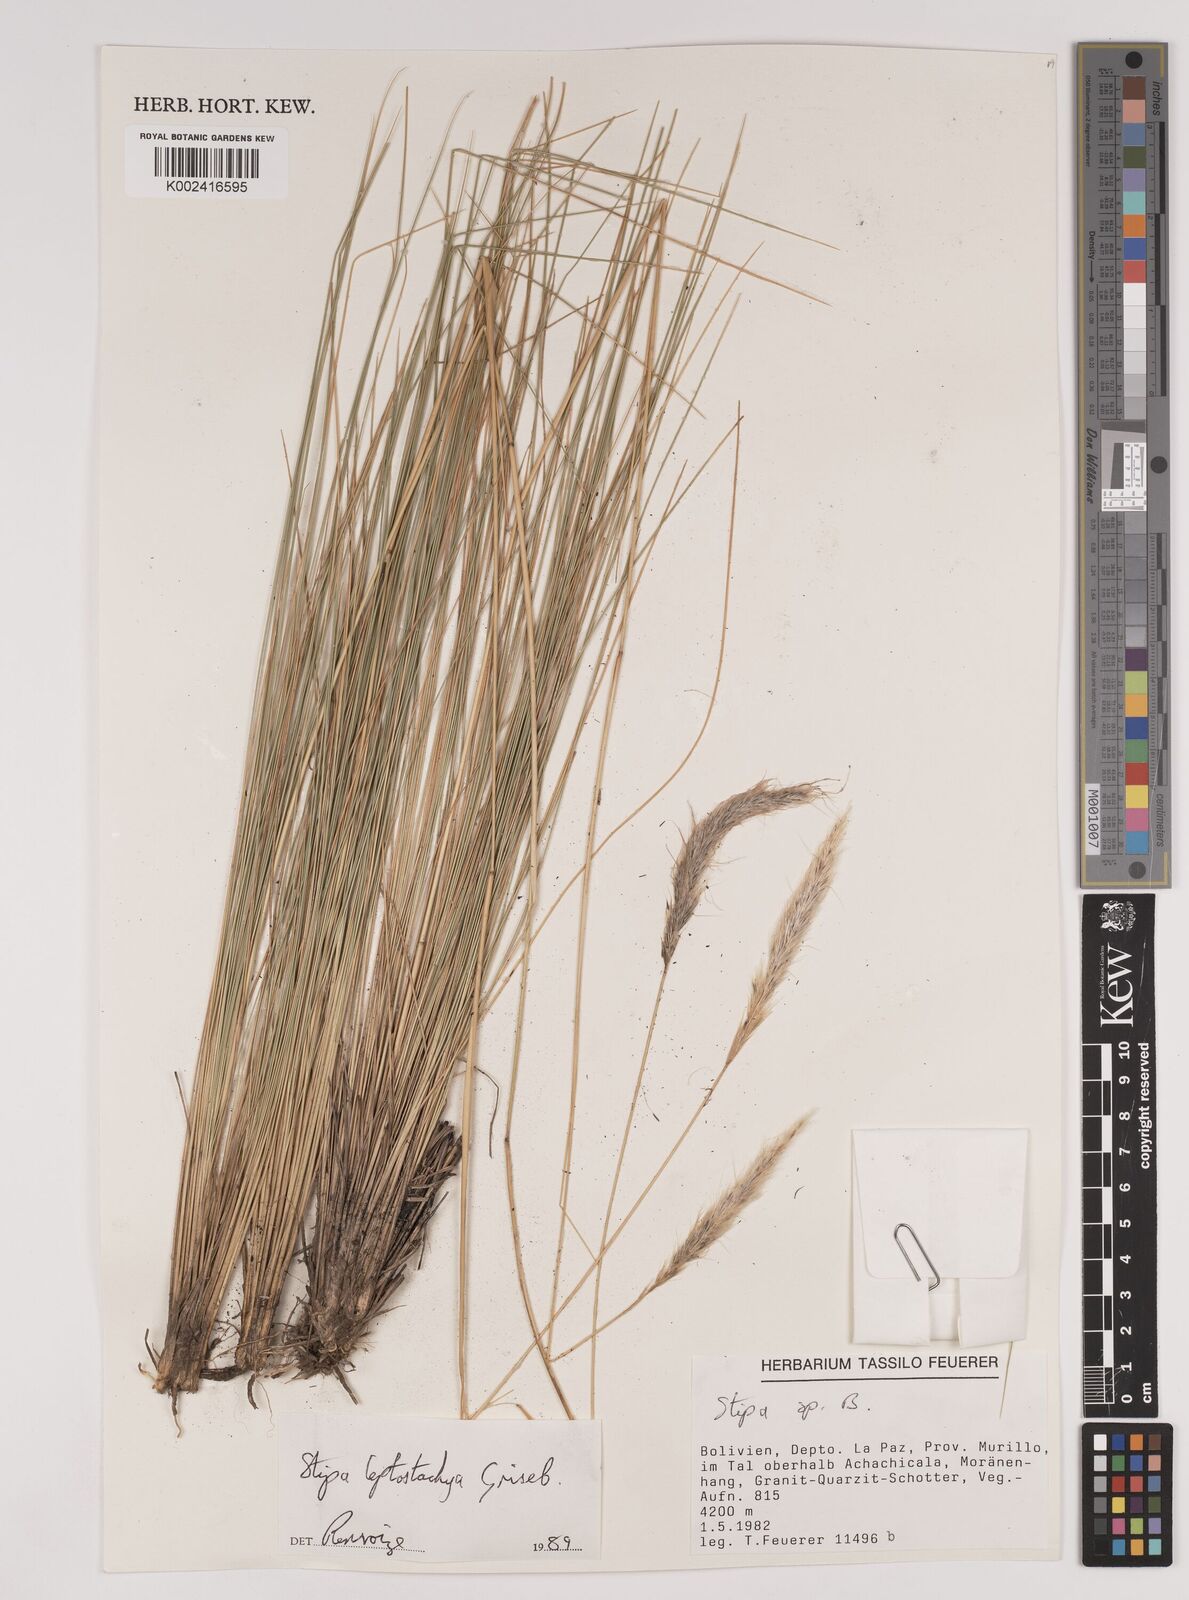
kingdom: Plantae
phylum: Tracheophyta
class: Liliopsida
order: Poales
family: Poaceae
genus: Jarava
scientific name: Jarava leptostachya
